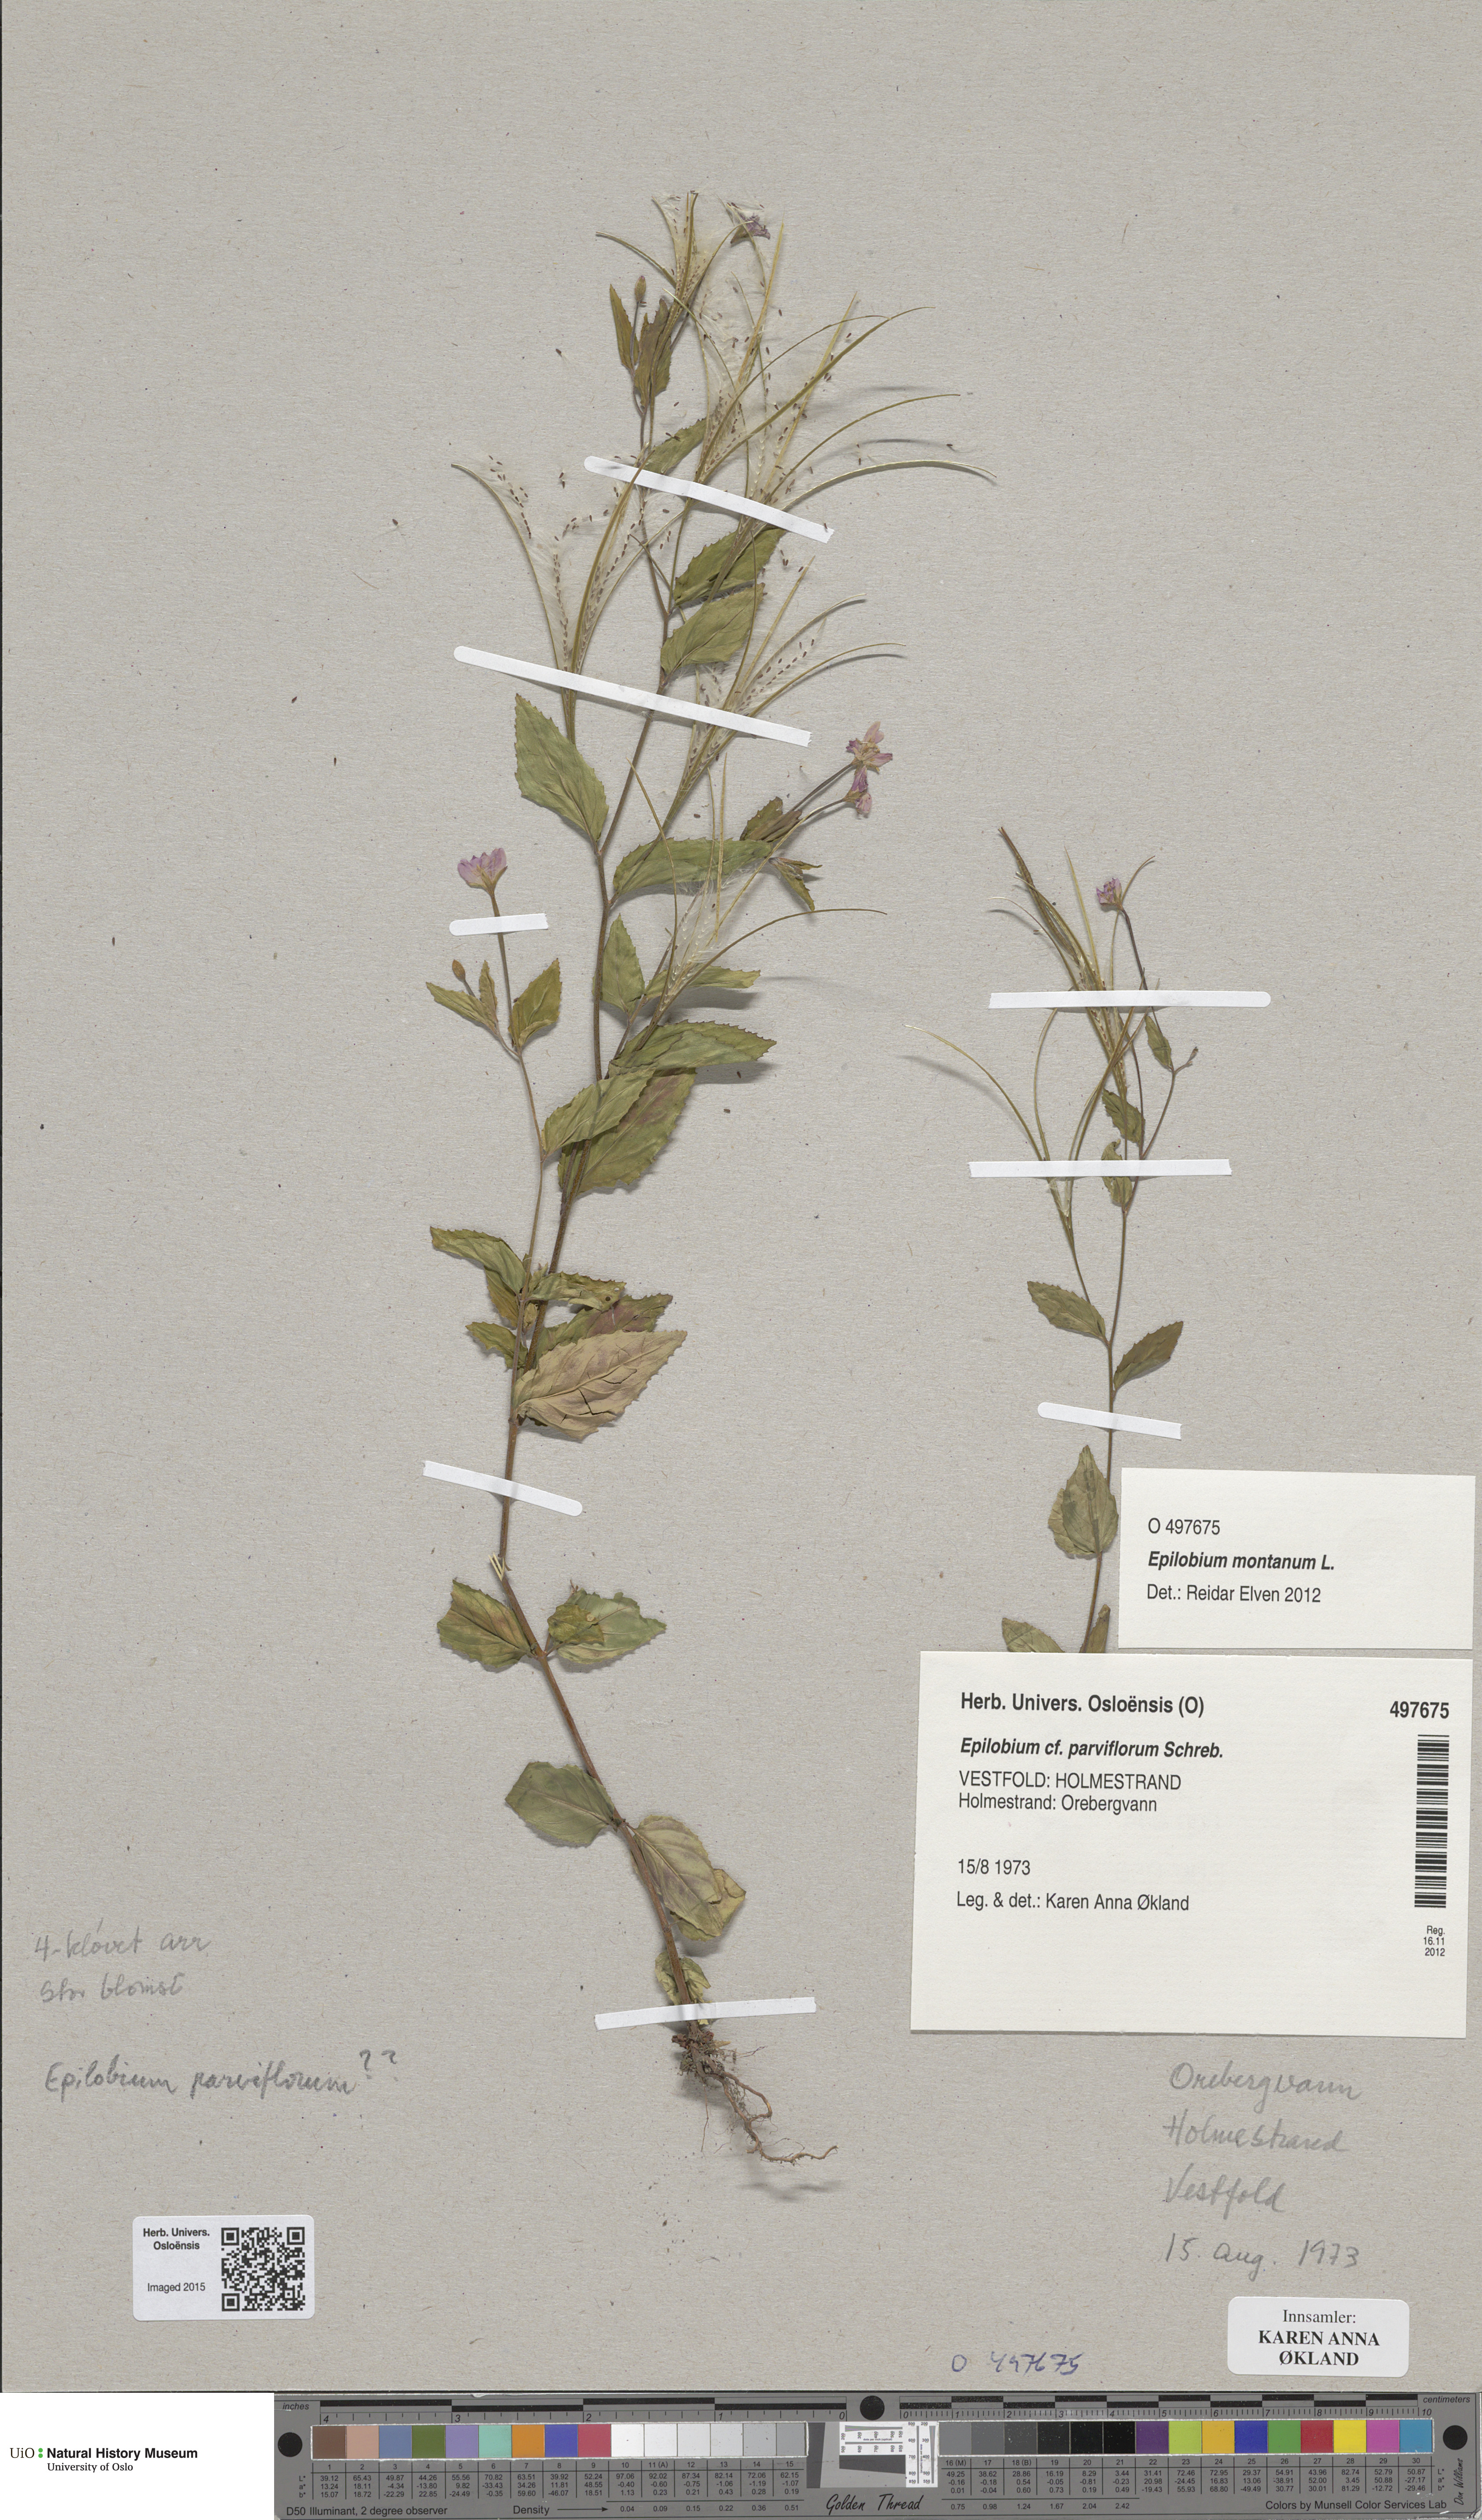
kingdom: Plantae
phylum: Tracheophyta
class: Magnoliopsida
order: Myrtales
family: Onagraceae
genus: Epilobium
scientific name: Epilobium parviflorum
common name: Hoary willowherb
